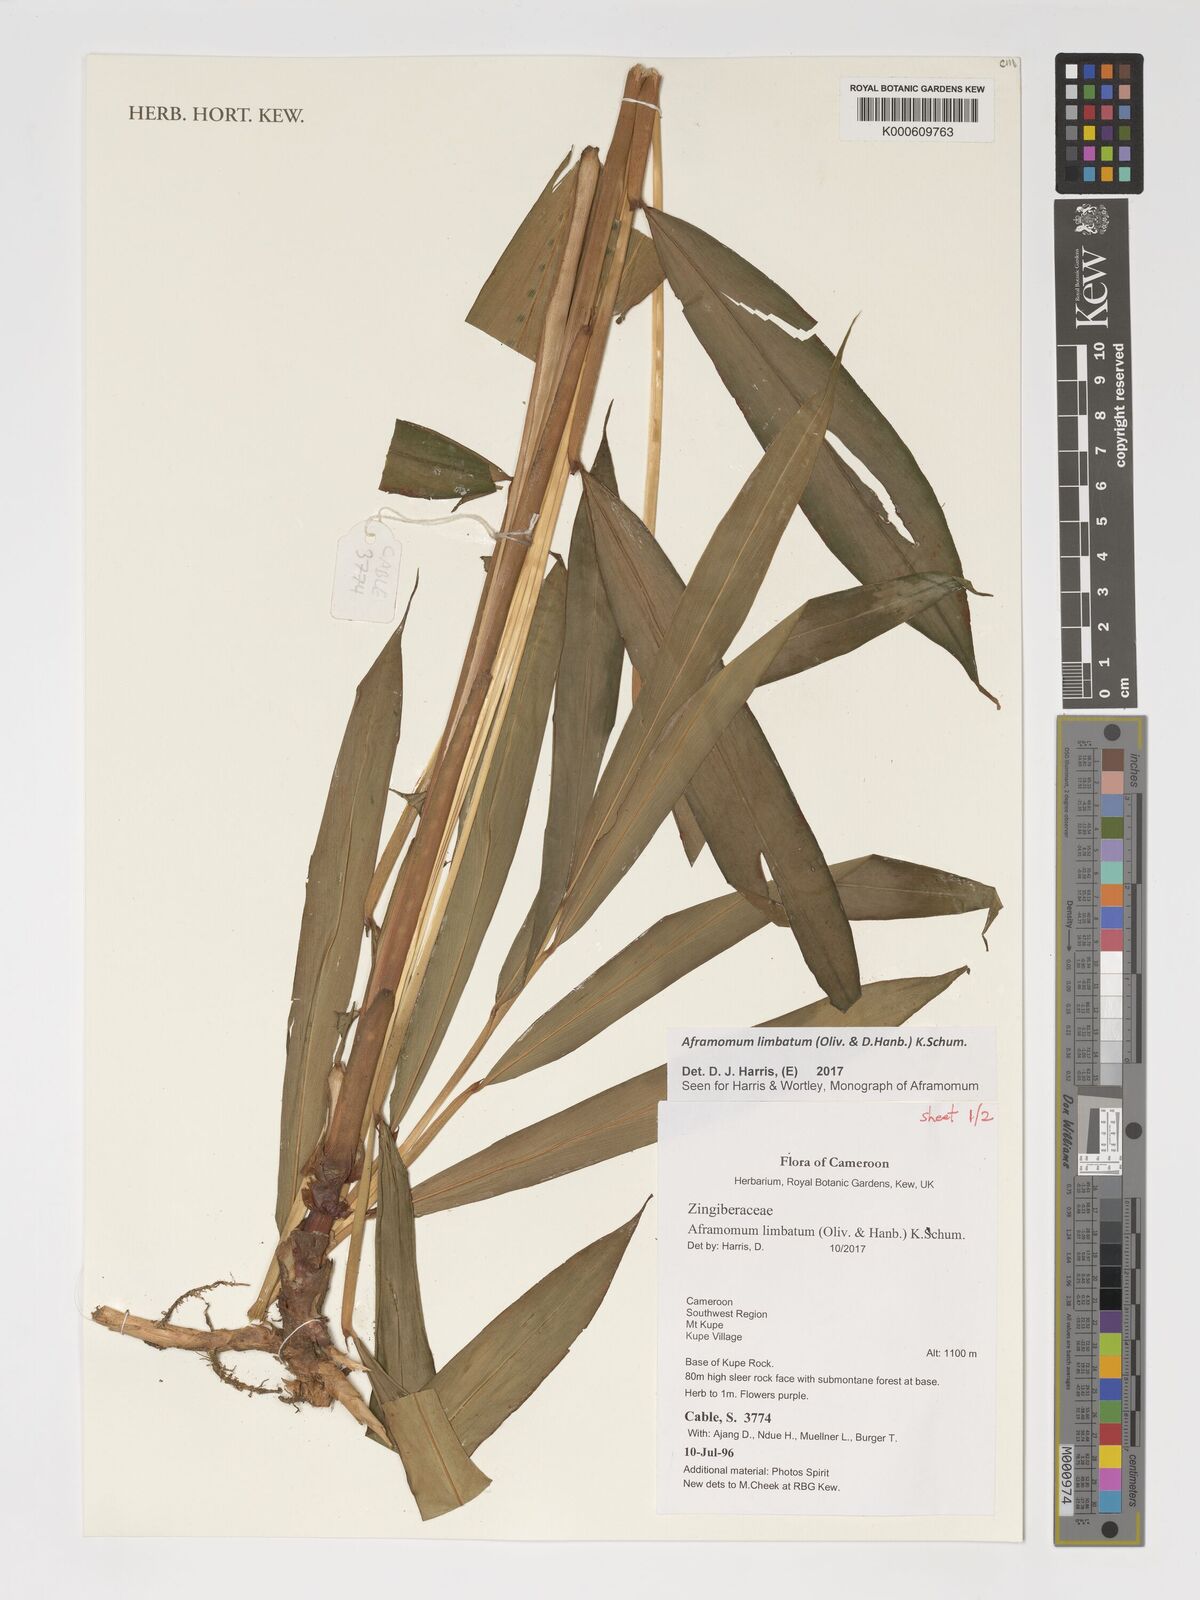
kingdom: Plantae
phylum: Tracheophyta
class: Liliopsida
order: Zingiberales
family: Zingiberaceae
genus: Aframomum
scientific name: Aframomum limbatum
